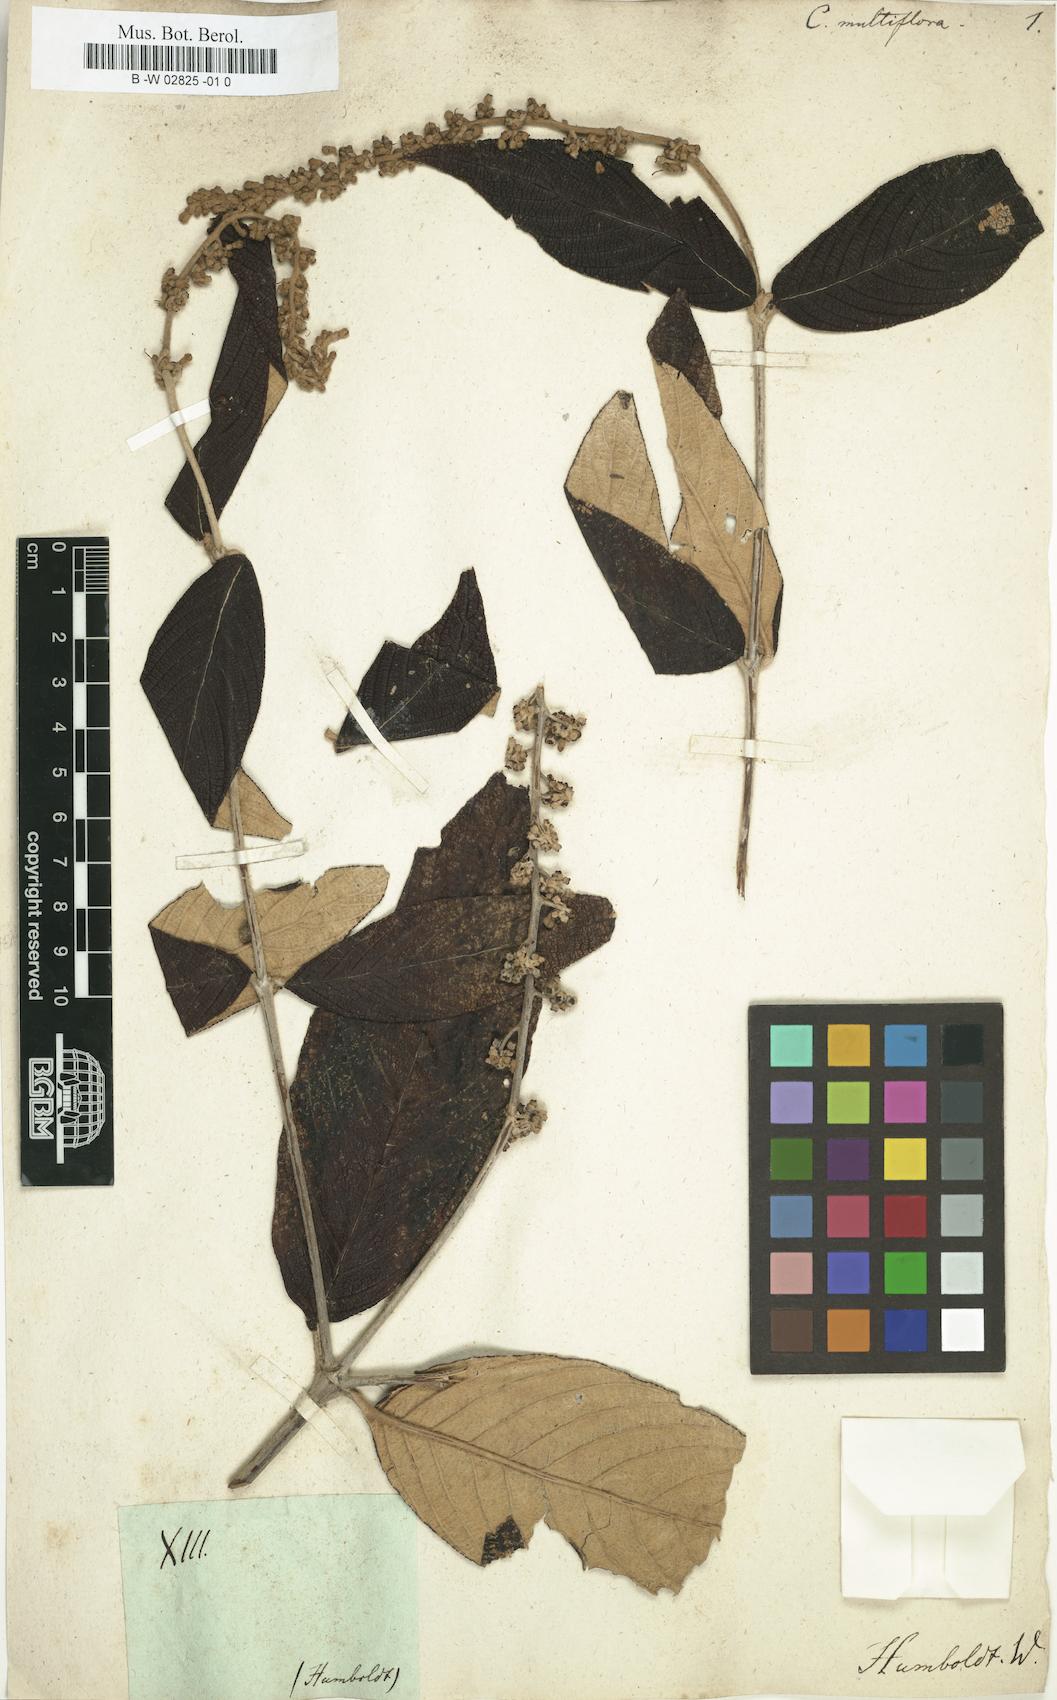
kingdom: Plantae
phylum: Tracheophyta
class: Magnoliopsida
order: Gentianales
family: Rubiaceae
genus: Gonzalagunia
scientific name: Gonzalagunia dependens
